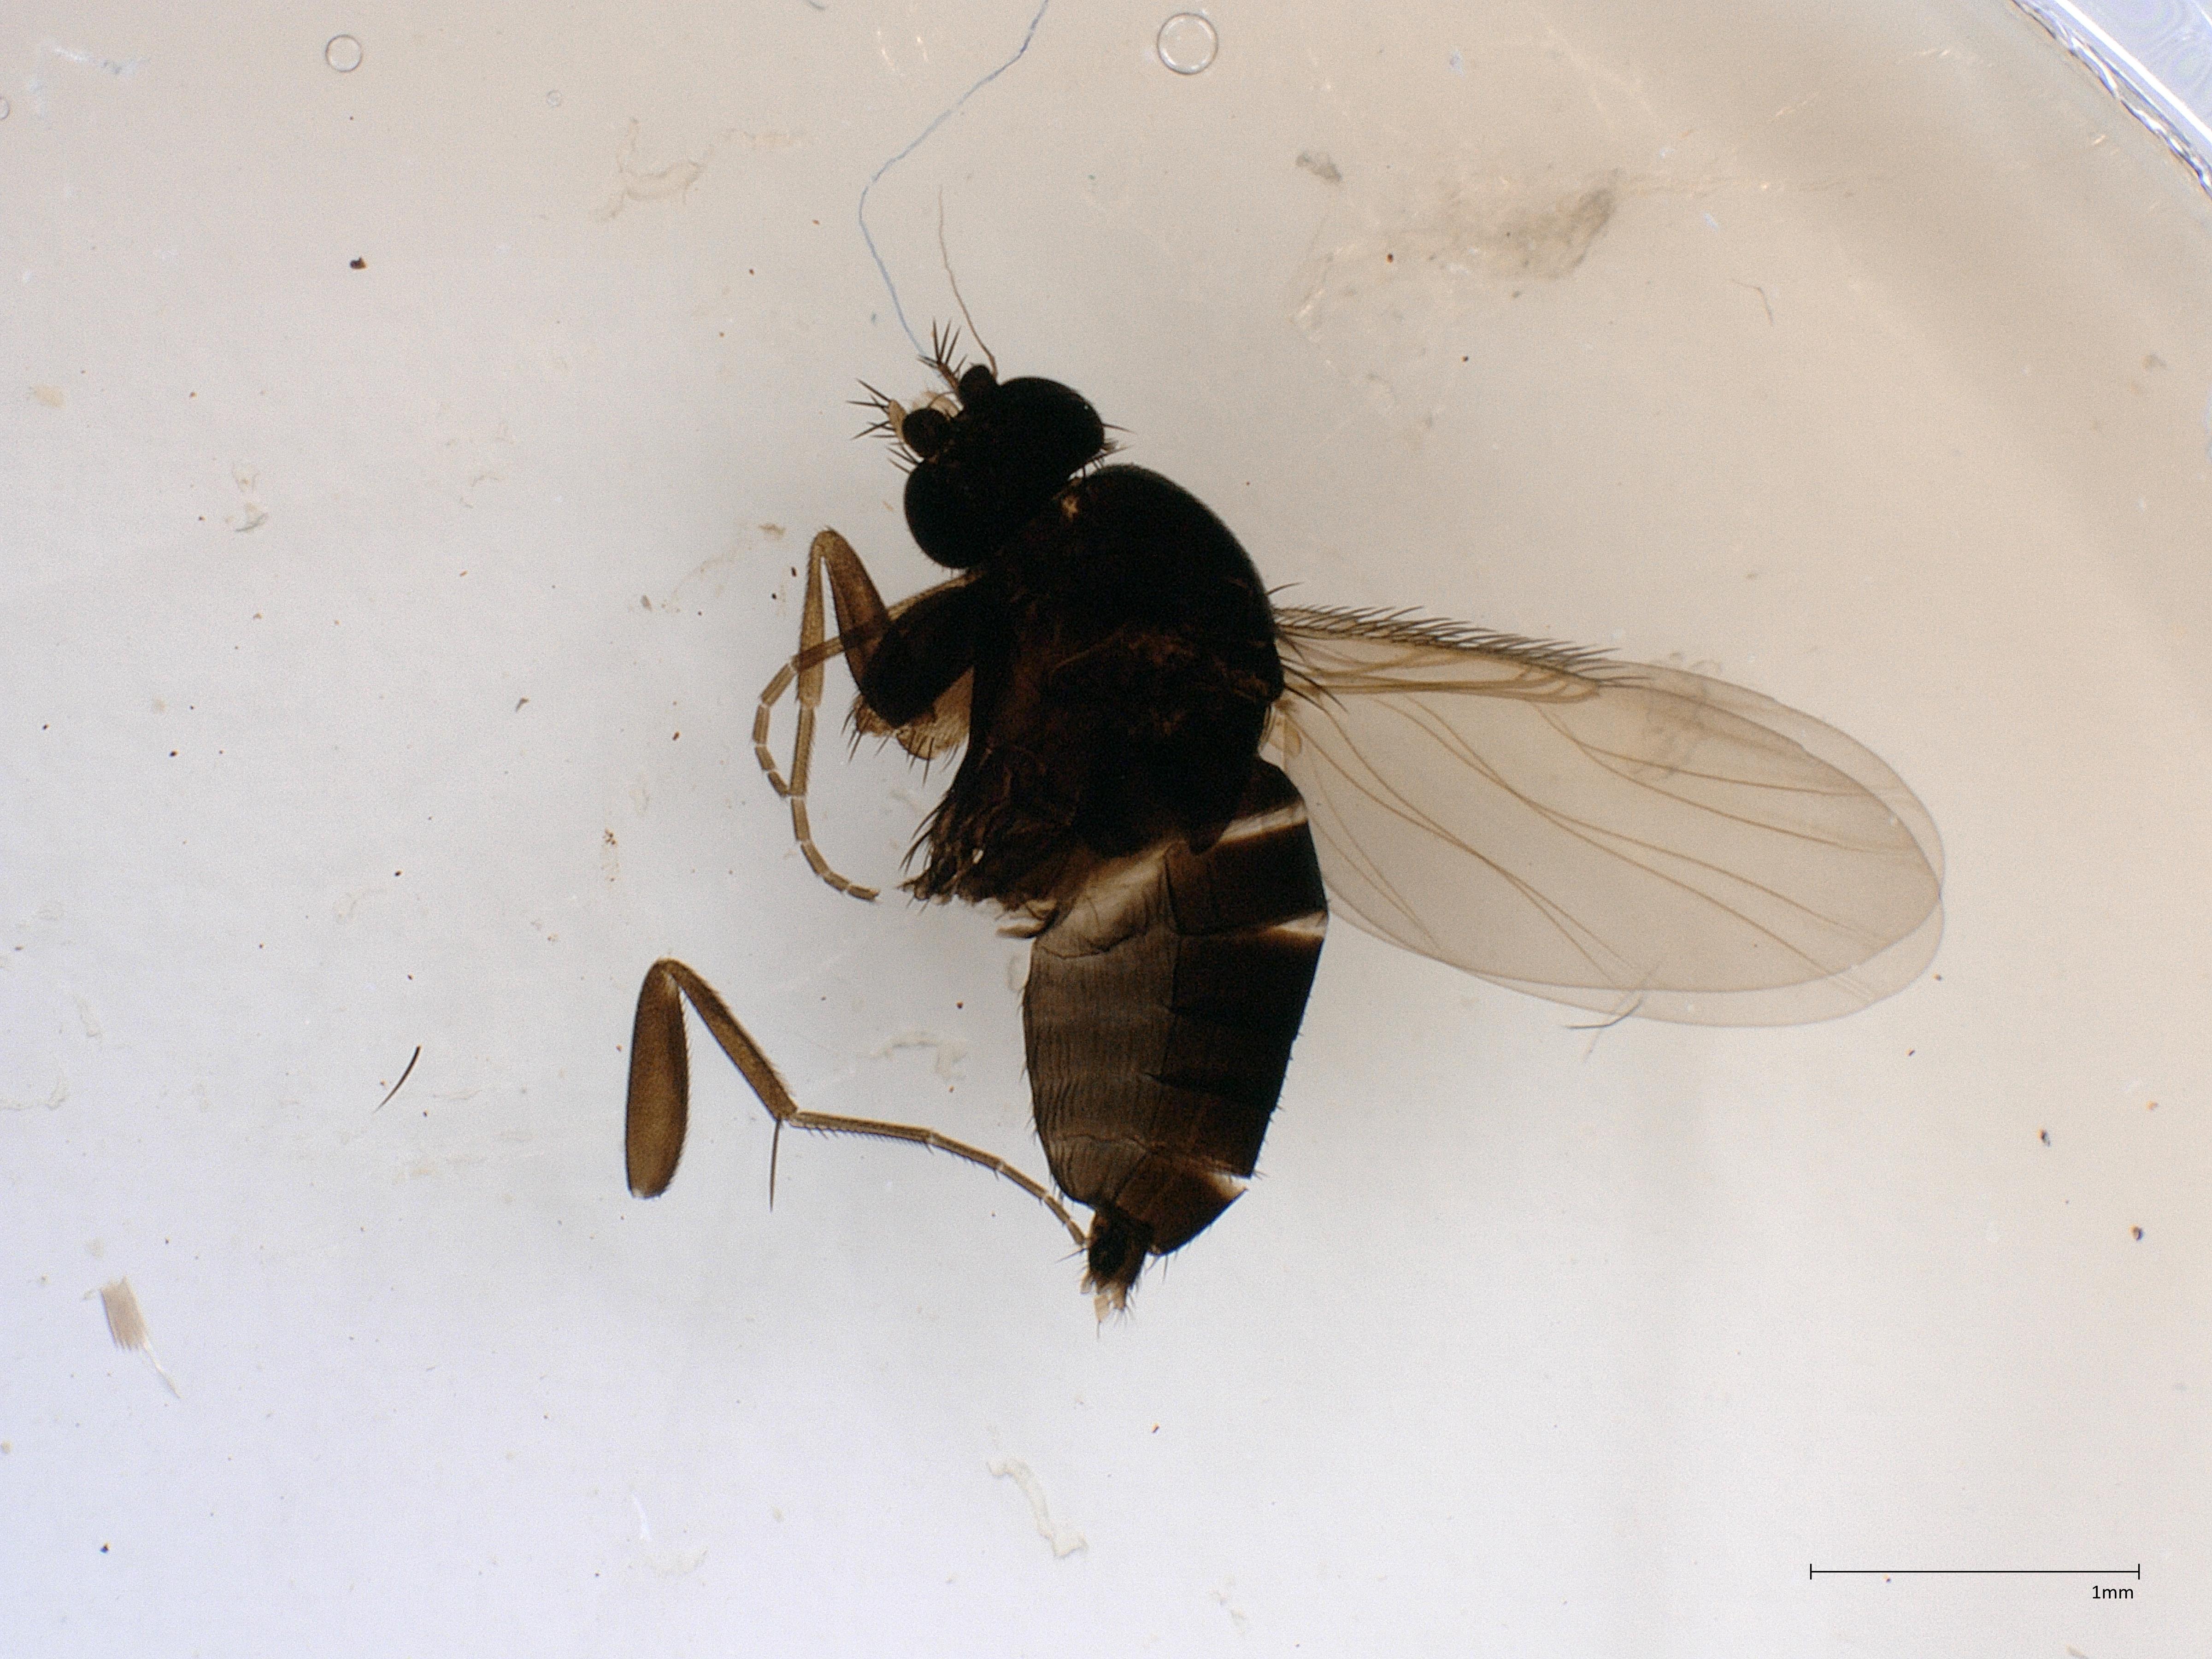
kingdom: Animalia
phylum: Arthropoda
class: Insecta
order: Diptera
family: Phoridae
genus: Megaselia
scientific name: Megaselia vernalis
